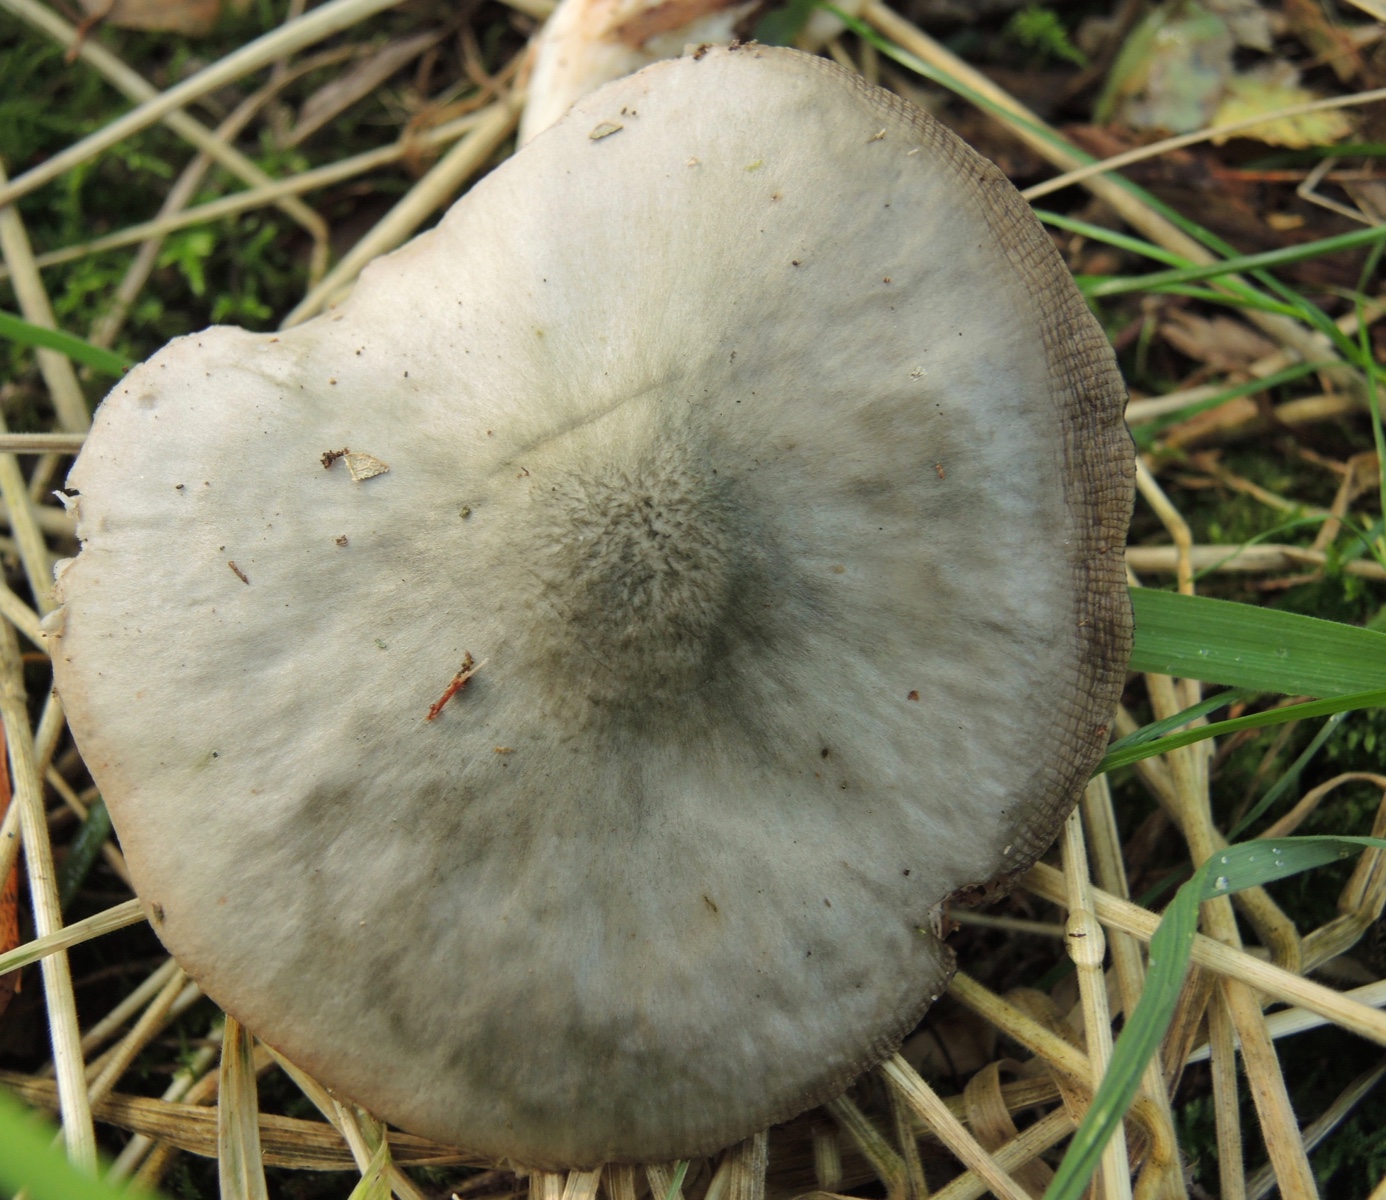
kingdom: Fungi
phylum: Basidiomycota
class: Agaricomycetes
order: Agaricales
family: Pluteaceae
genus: Pluteus
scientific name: Pluteus salicinus
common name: stiv skærmhat
